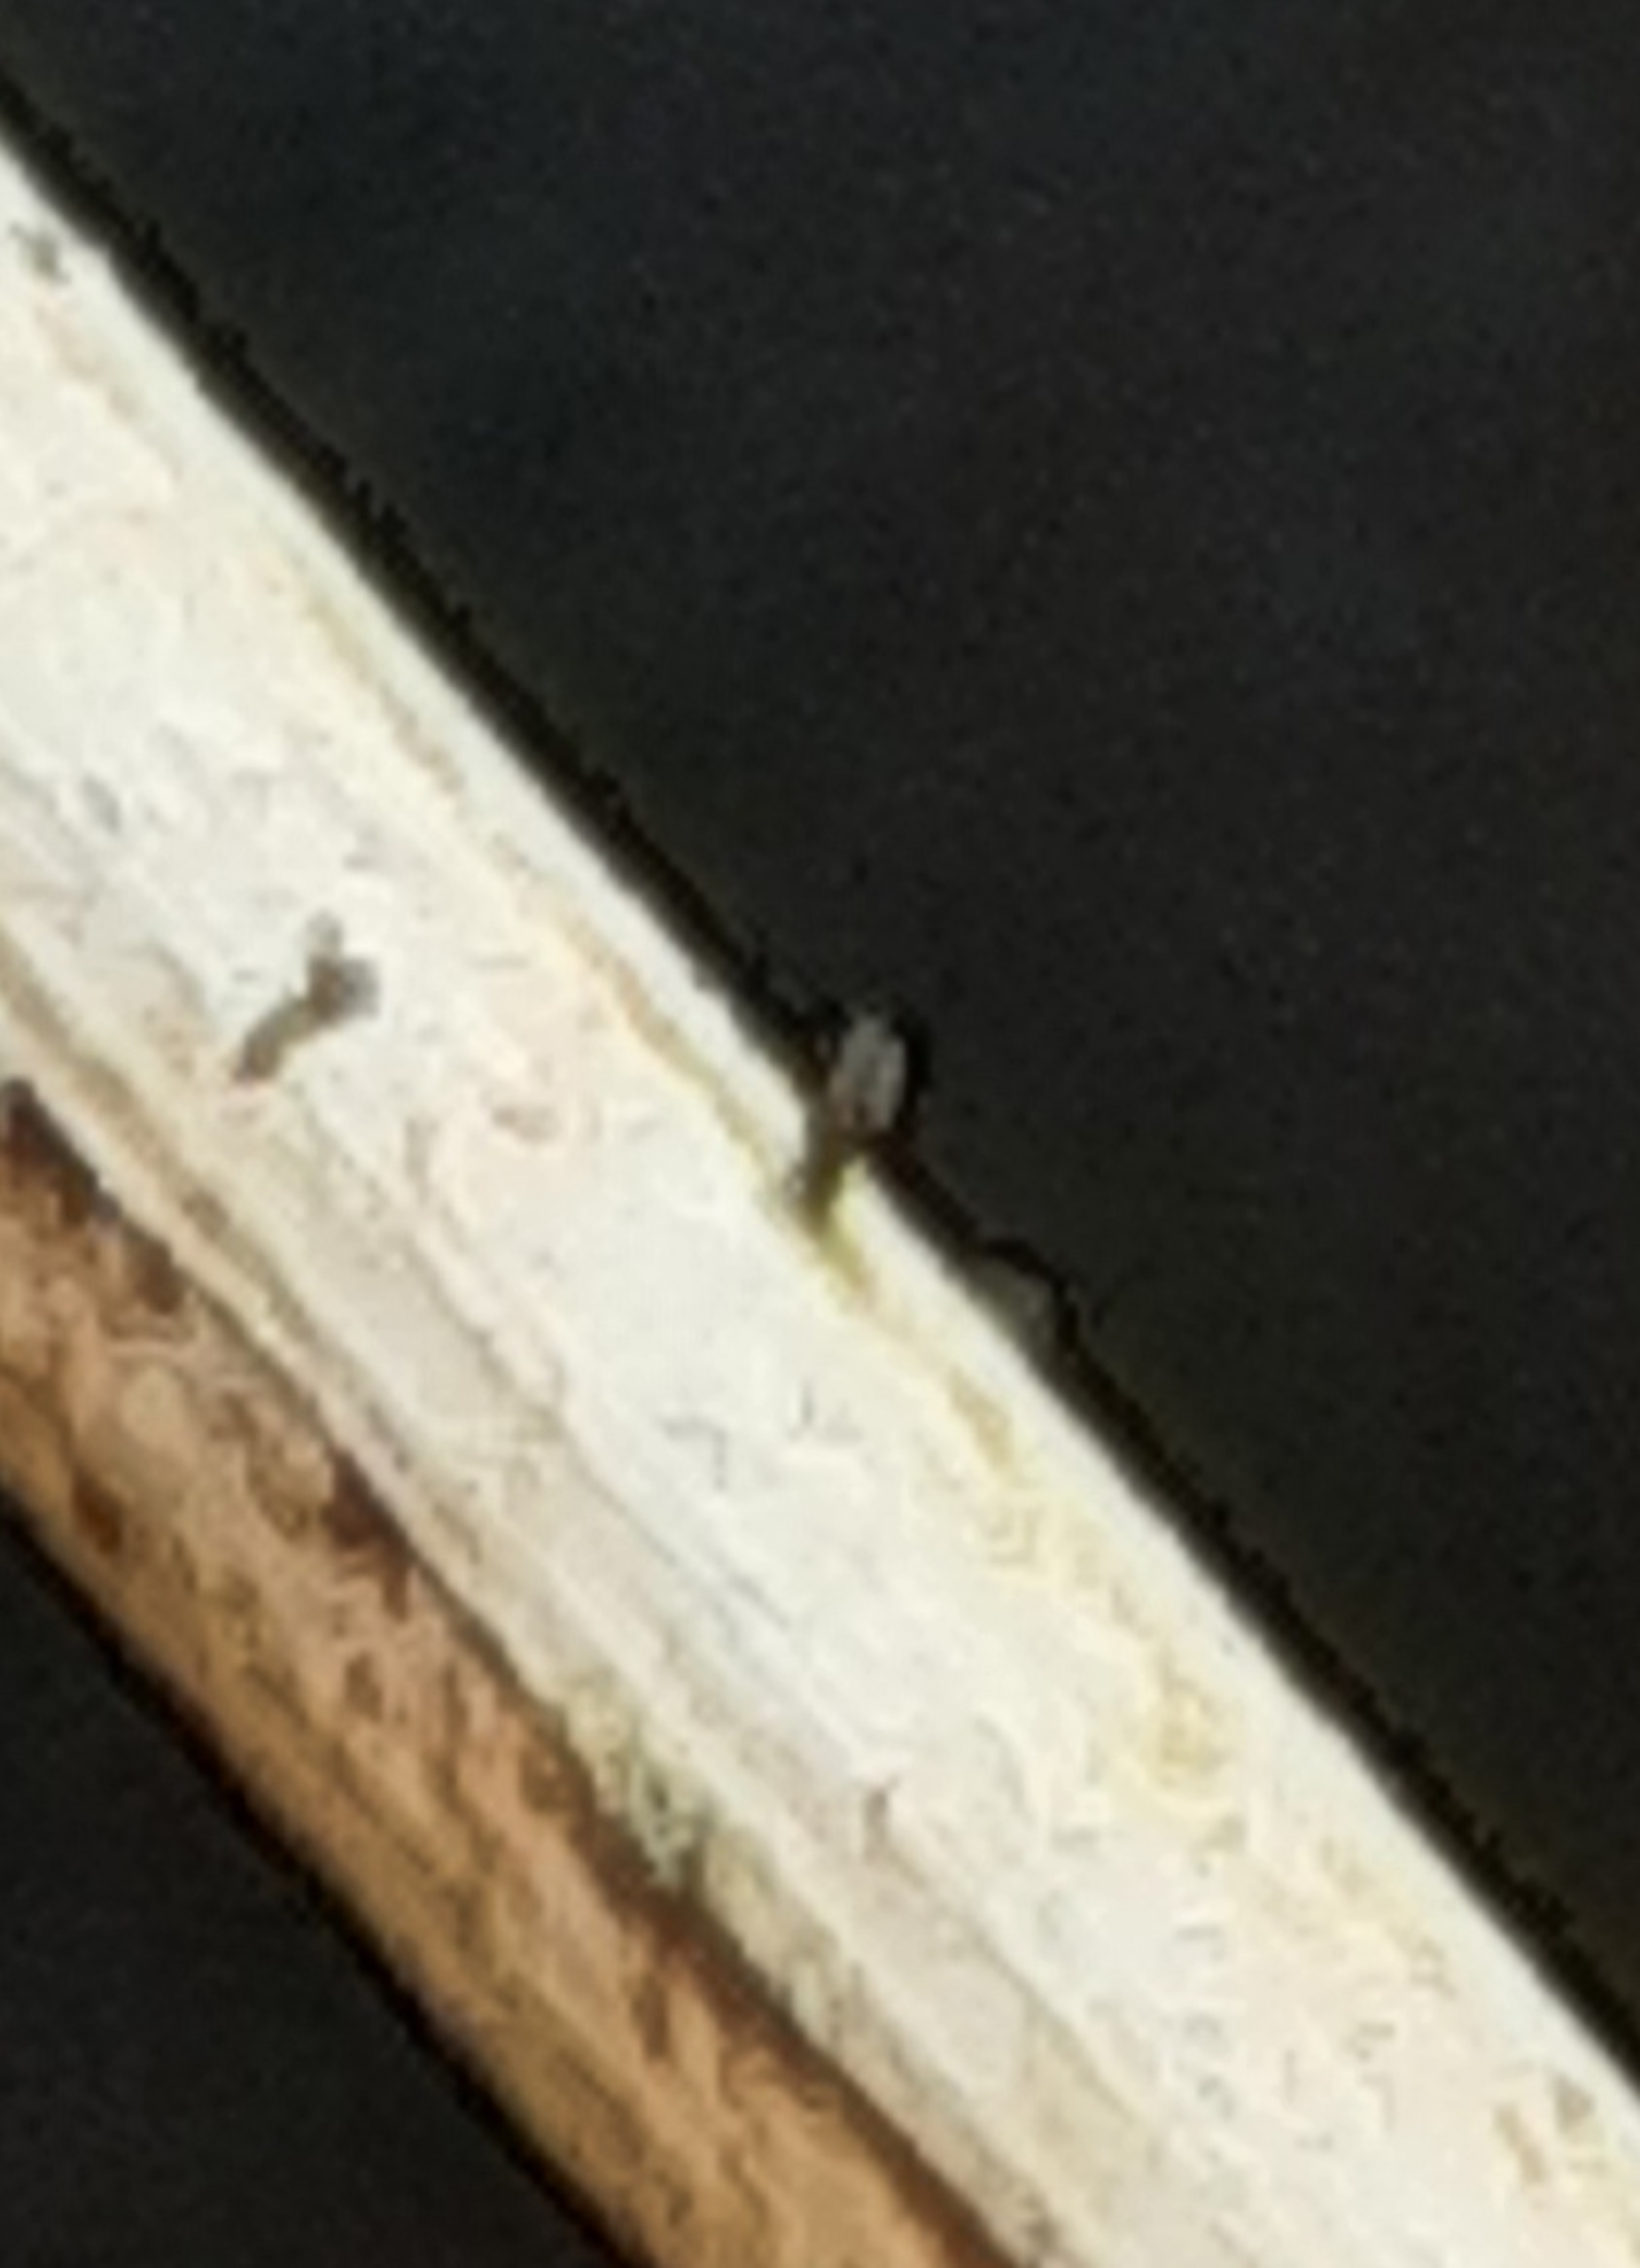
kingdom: Fungi
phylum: Ascomycota
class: Dothideomycetes
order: Acrospermales
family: Acrospermaceae
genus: Acrospermum
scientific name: Acrospermum pallidulum
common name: Snerre-stængeltunge
